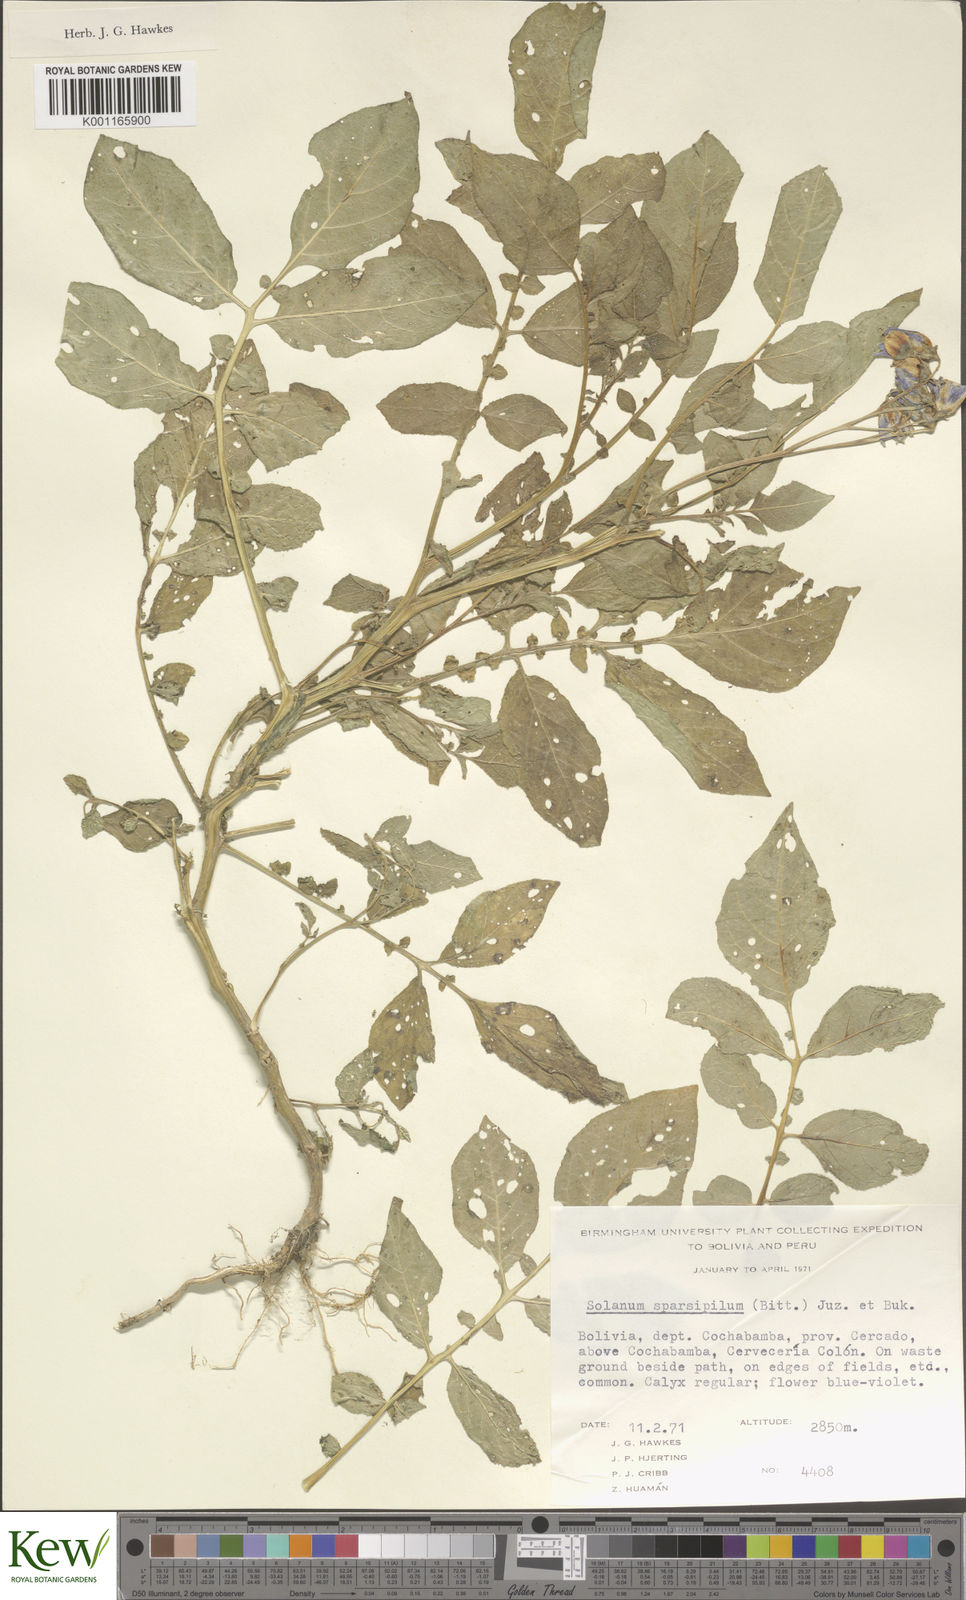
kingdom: Plantae
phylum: Tracheophyta
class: Magnoliopsida
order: Solanales
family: Solanaceae
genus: Solanum
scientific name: Solanum brevicaule
